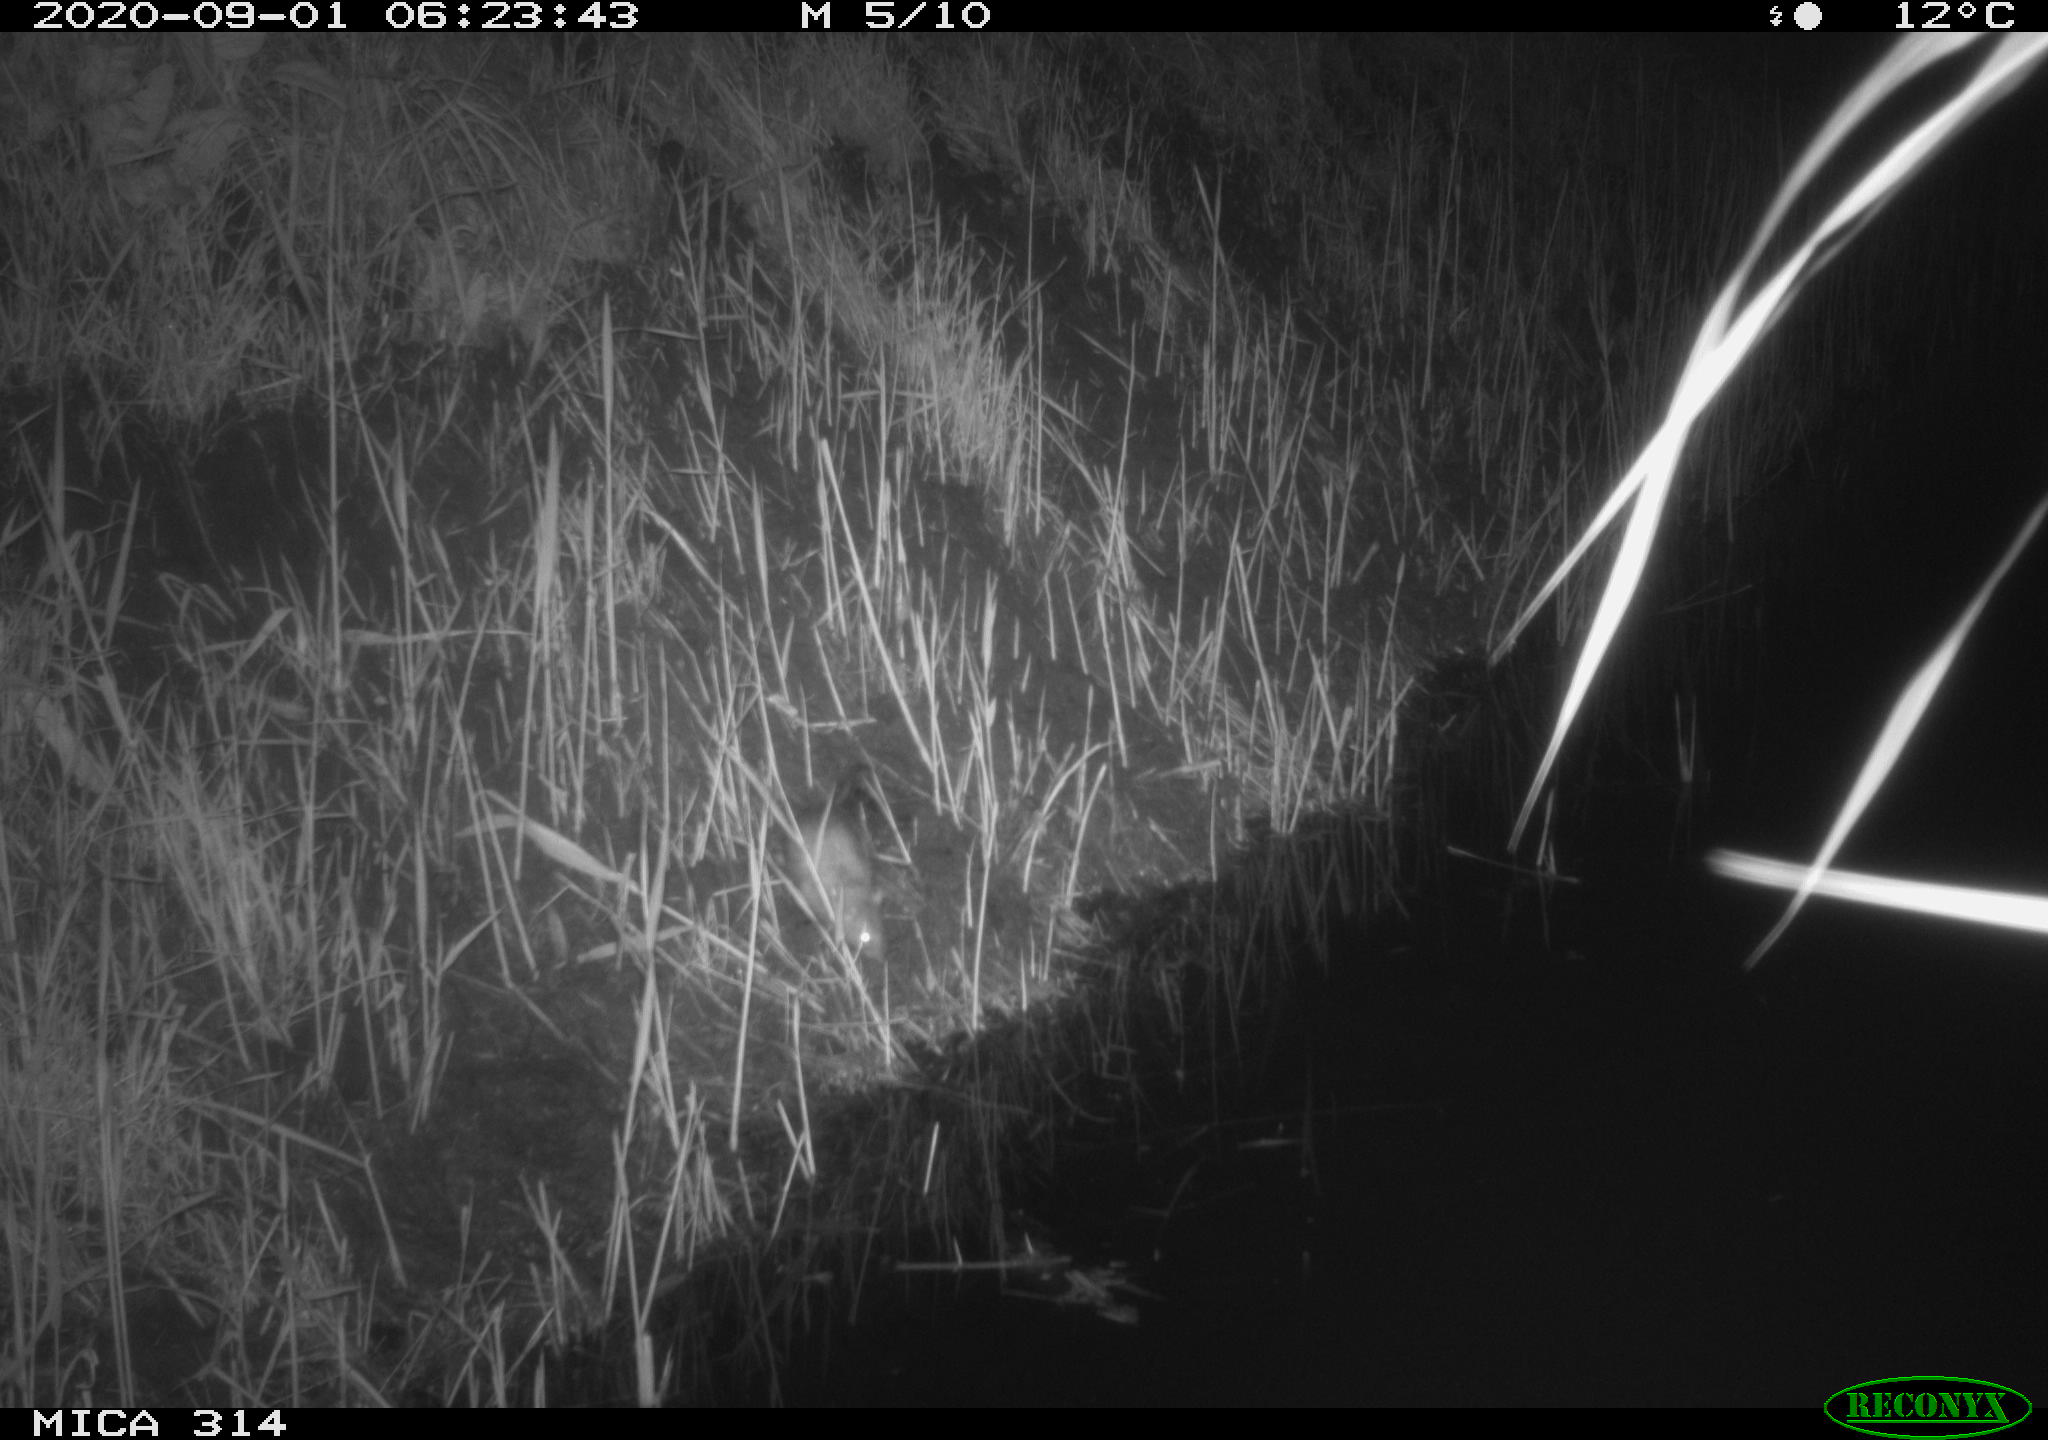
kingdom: Animalia
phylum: Chordata
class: Mammalia
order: Rodentia
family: Muridae
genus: Rattus
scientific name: Rattus norvegicus
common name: Brown rat
